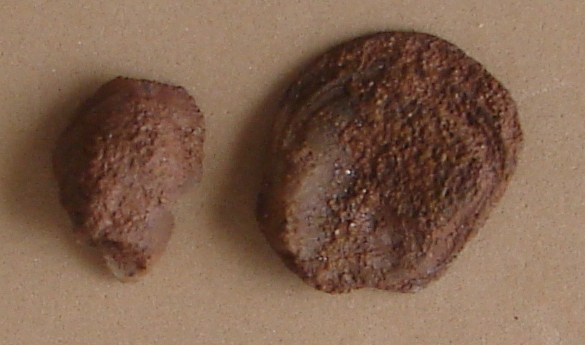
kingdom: Animalia
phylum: Mollusca
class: Bivalvia
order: Ostreida
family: Ostreidae
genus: Ostrea
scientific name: Ostrea
